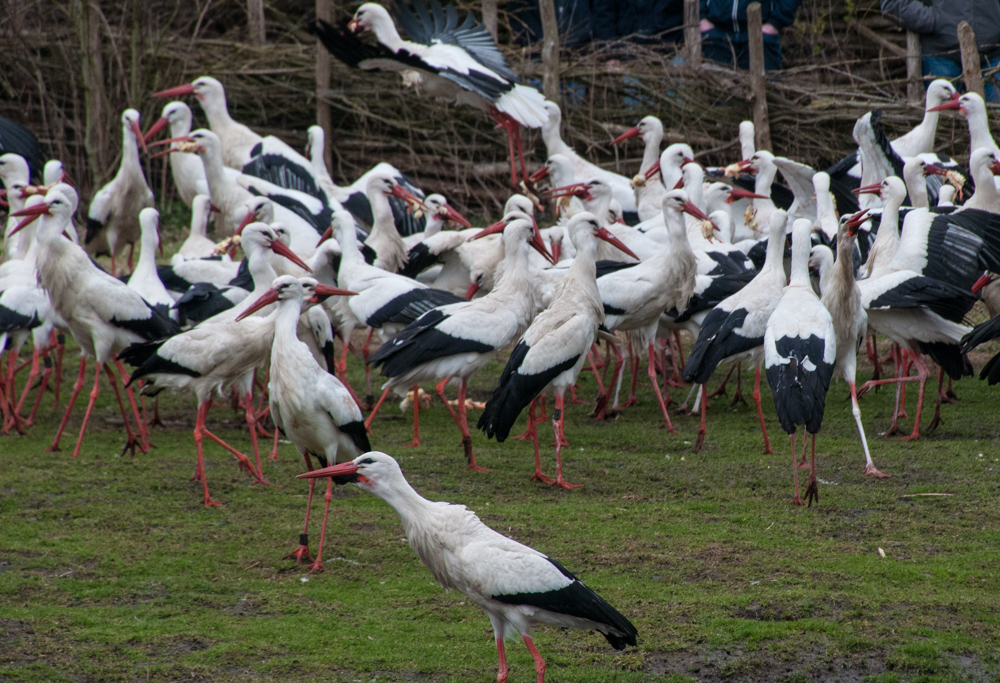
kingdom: Animalia
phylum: Chordata
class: Aves
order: Ciconiiformes
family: Ciconiidae
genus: Ciconia
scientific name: Ciconia ciconia
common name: White stork
